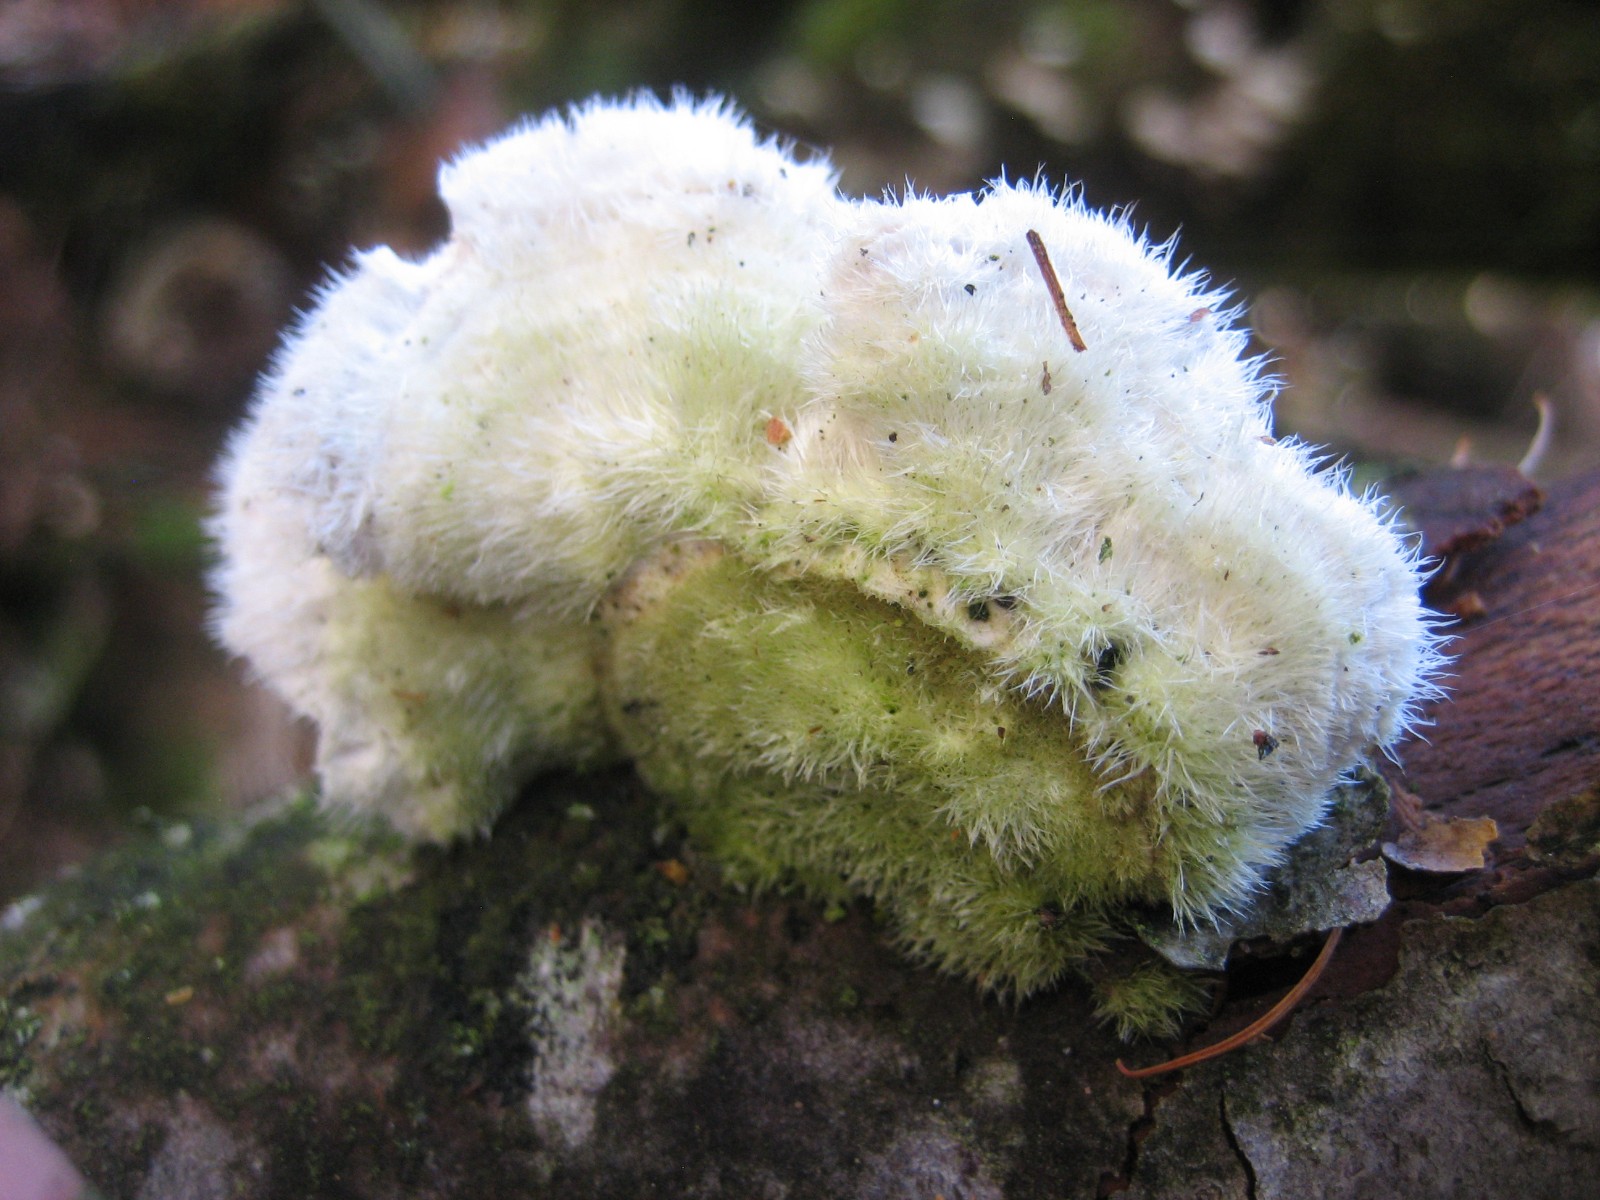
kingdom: Fungi
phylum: Basidiomycota
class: Agaricomycetes
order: Polyporales
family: Polyporaceae
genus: Trametes
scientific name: Trametes hirsuta
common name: håret læderporesvamp
